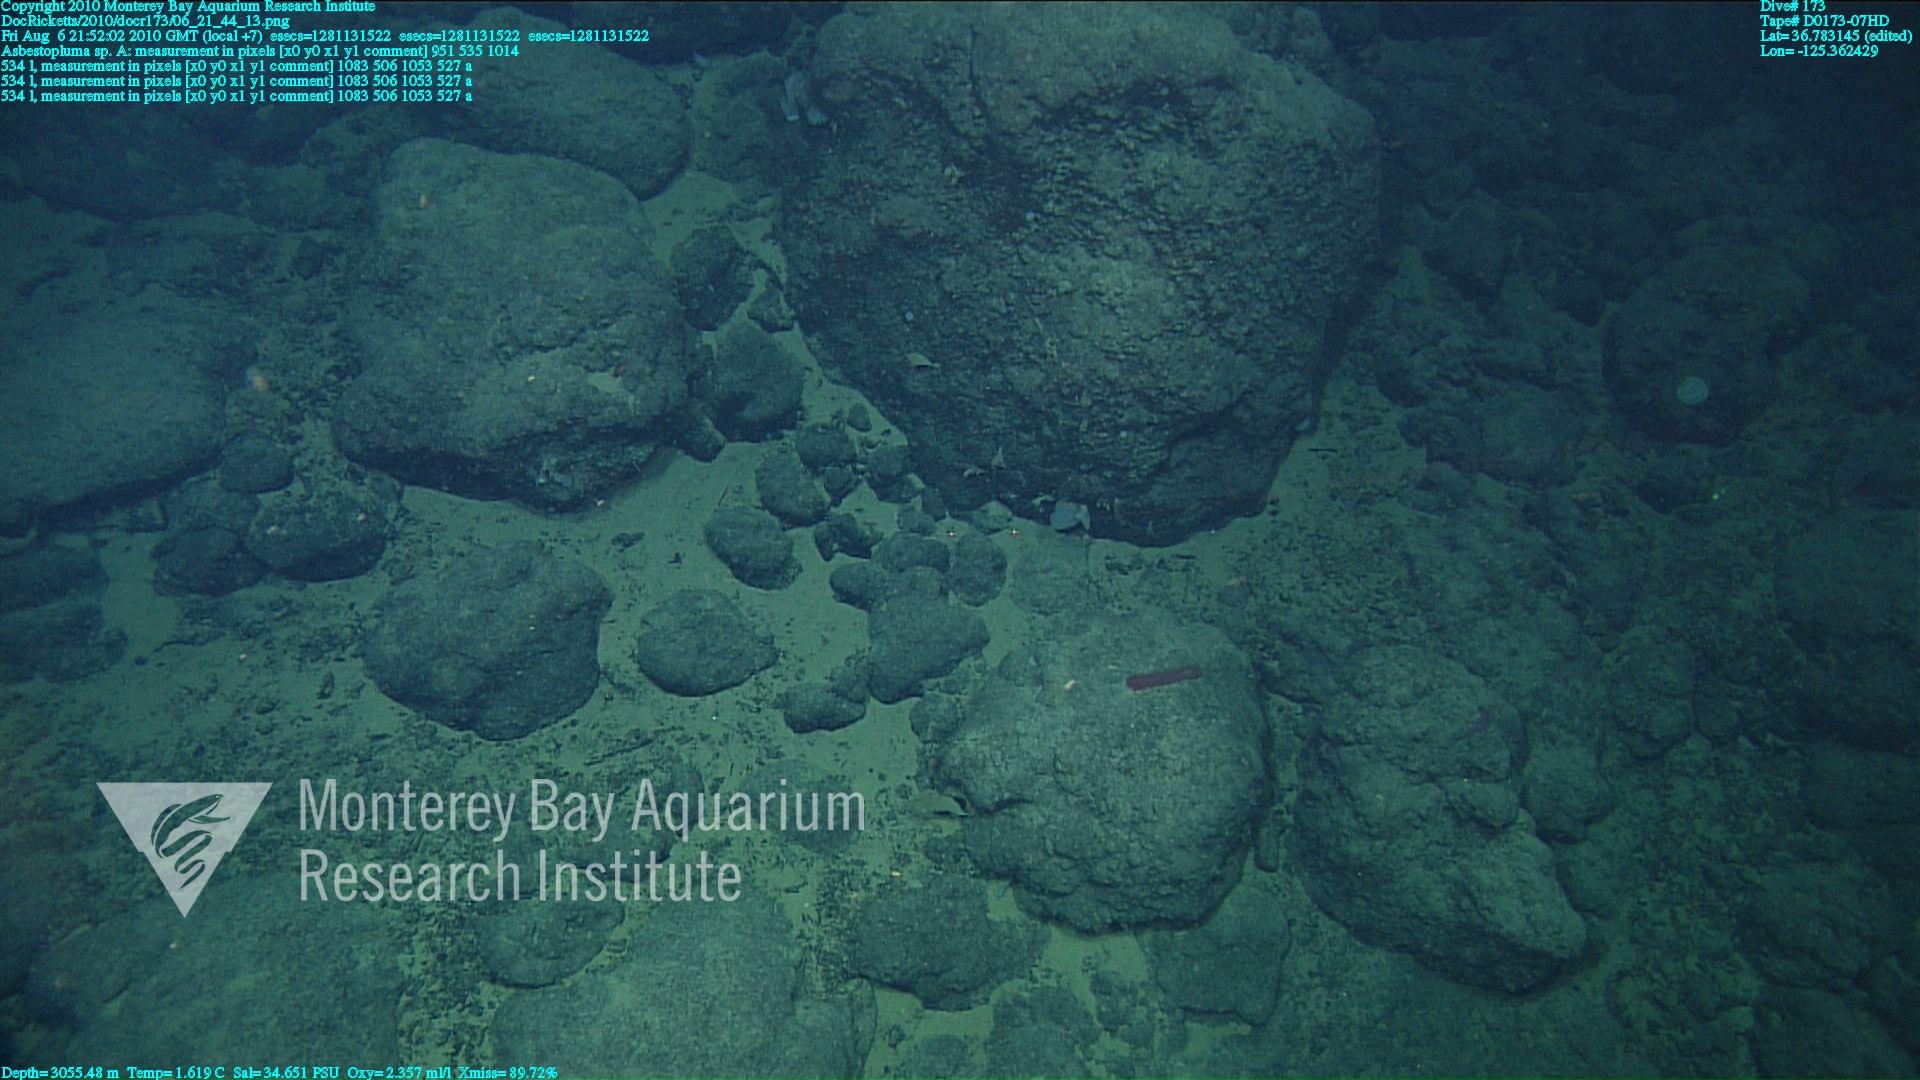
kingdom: Animalia
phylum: Porifera
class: Demospongiae
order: Poecilosclerida
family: Cladorhizidae
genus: Asbestopluma
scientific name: Asbestopluma
